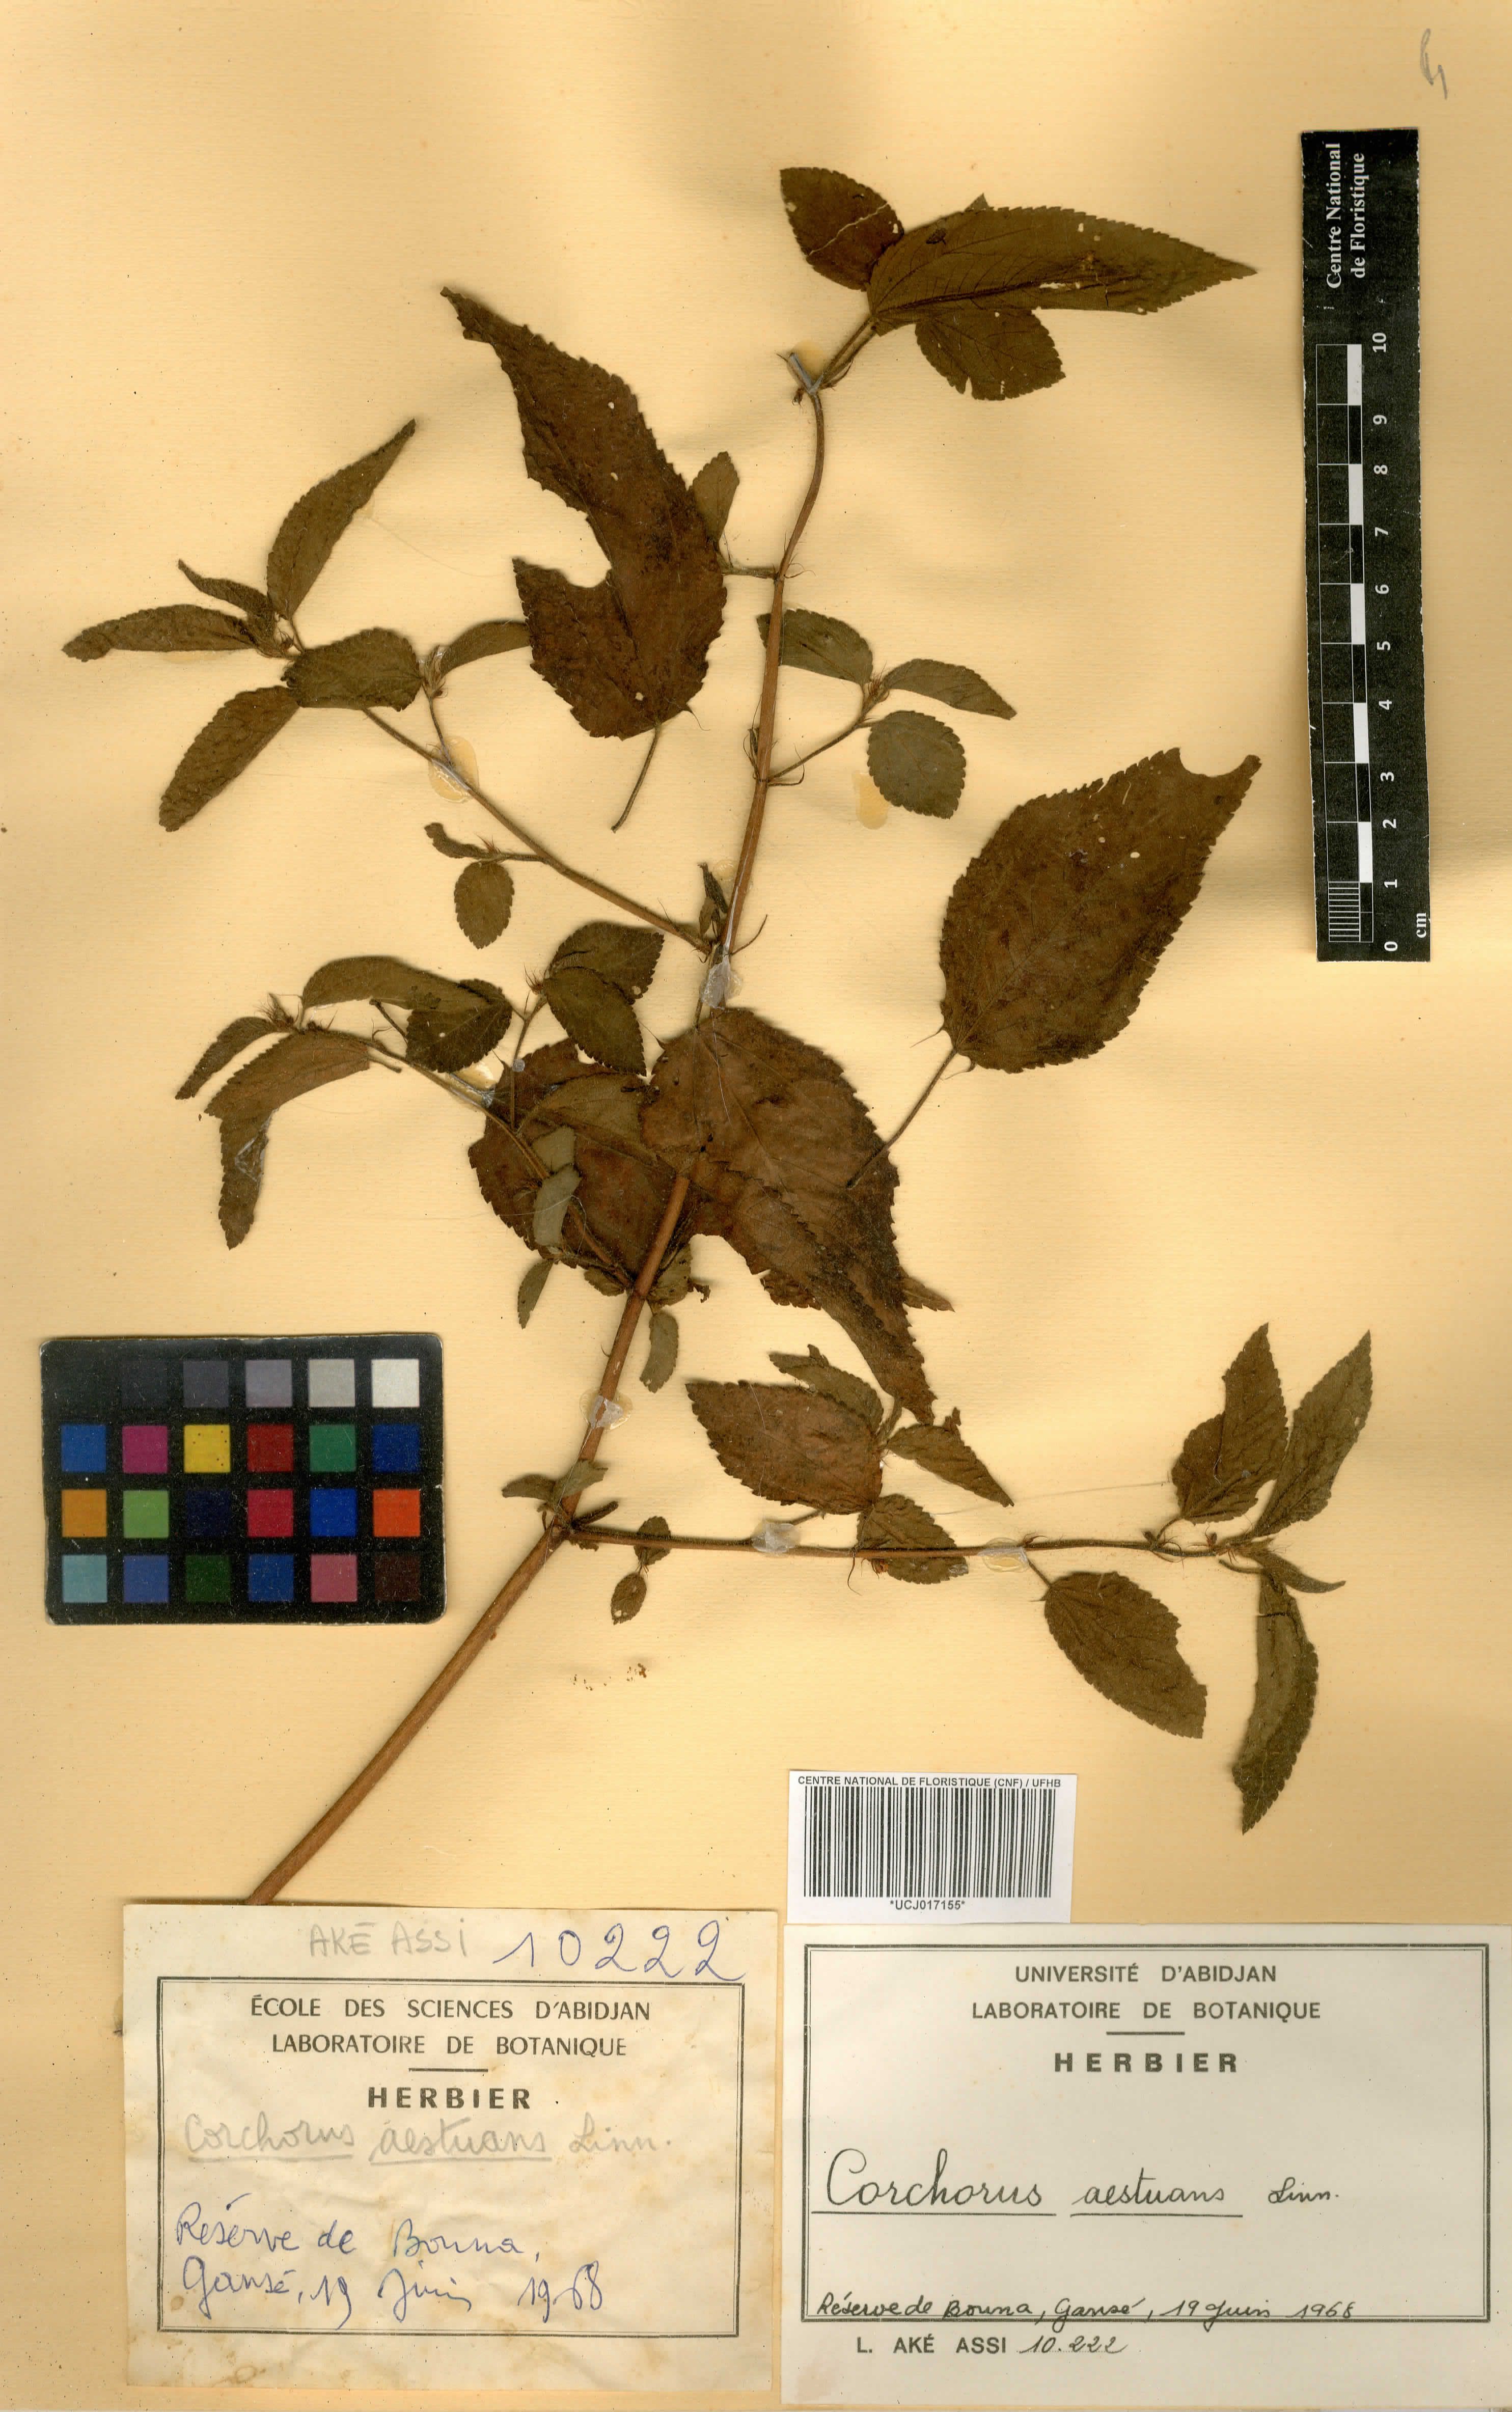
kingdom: Plantae
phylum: Tracheophyta
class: Magnoliopsida
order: Malvales
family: Malvaceae
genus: Corchorus
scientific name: Corchorus aestuans
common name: Jute
